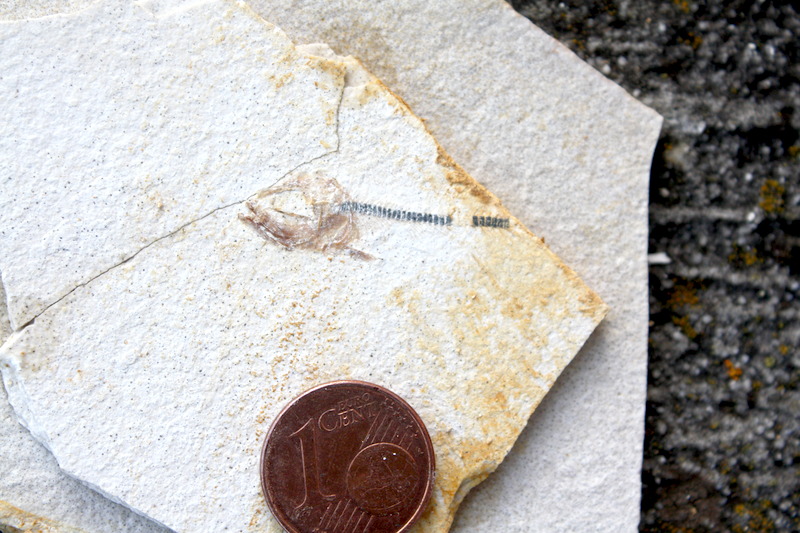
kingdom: Animalia
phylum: Chordata
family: Ascalaboidae
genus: Ebertichthys
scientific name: Ebertichthys ettlingensis
